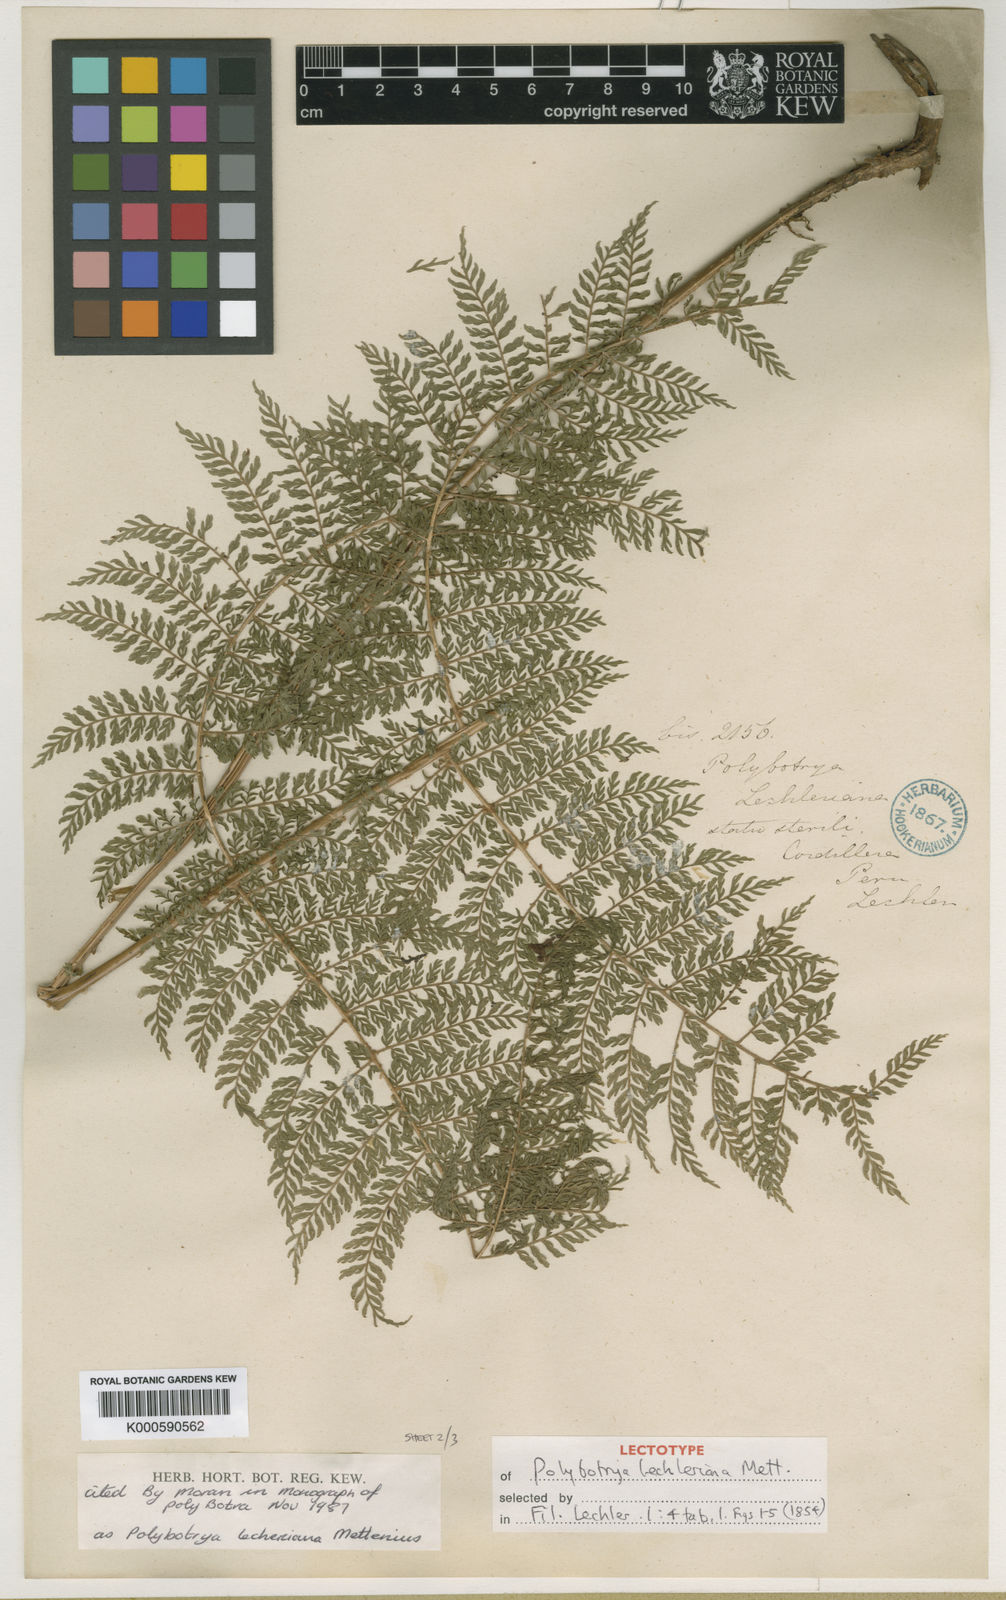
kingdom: Plantae
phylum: Tracheophyta
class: Polypodiopsida
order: Polypodiales
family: Dryopteridaceae
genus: Polybotrya
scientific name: Polybotrya lechleriana
